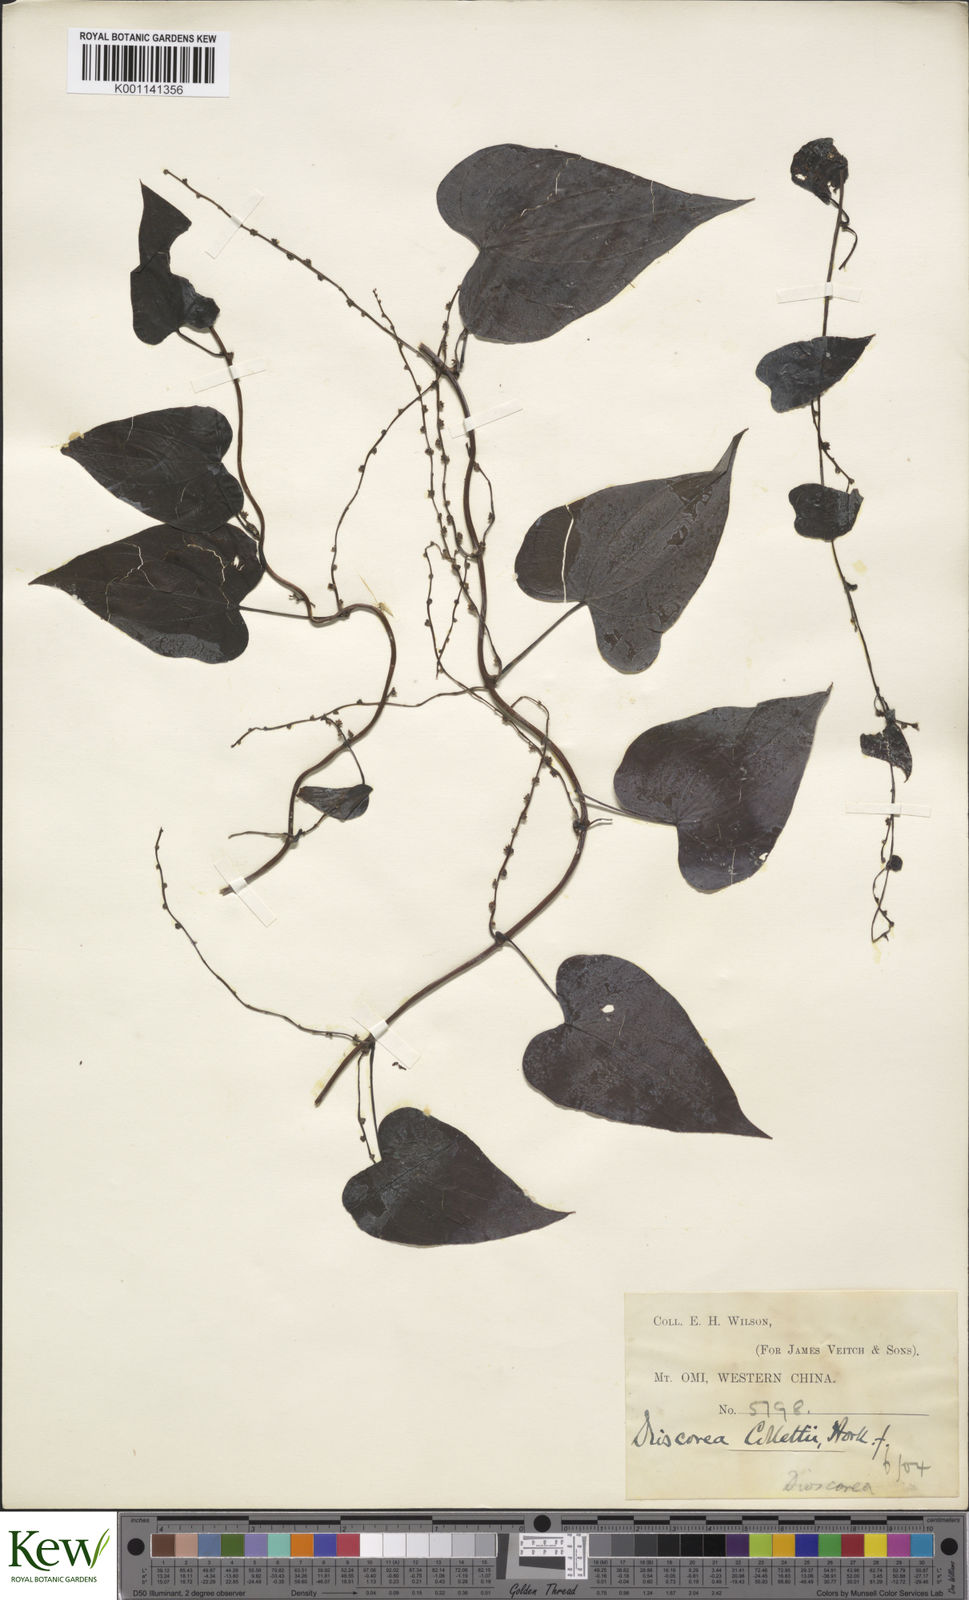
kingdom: Plantae
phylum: Tracheophyta
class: Liliopsida
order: Dioscoreales
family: Dioscoreaceae
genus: Dioscorea
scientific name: Dioscorea collettii
